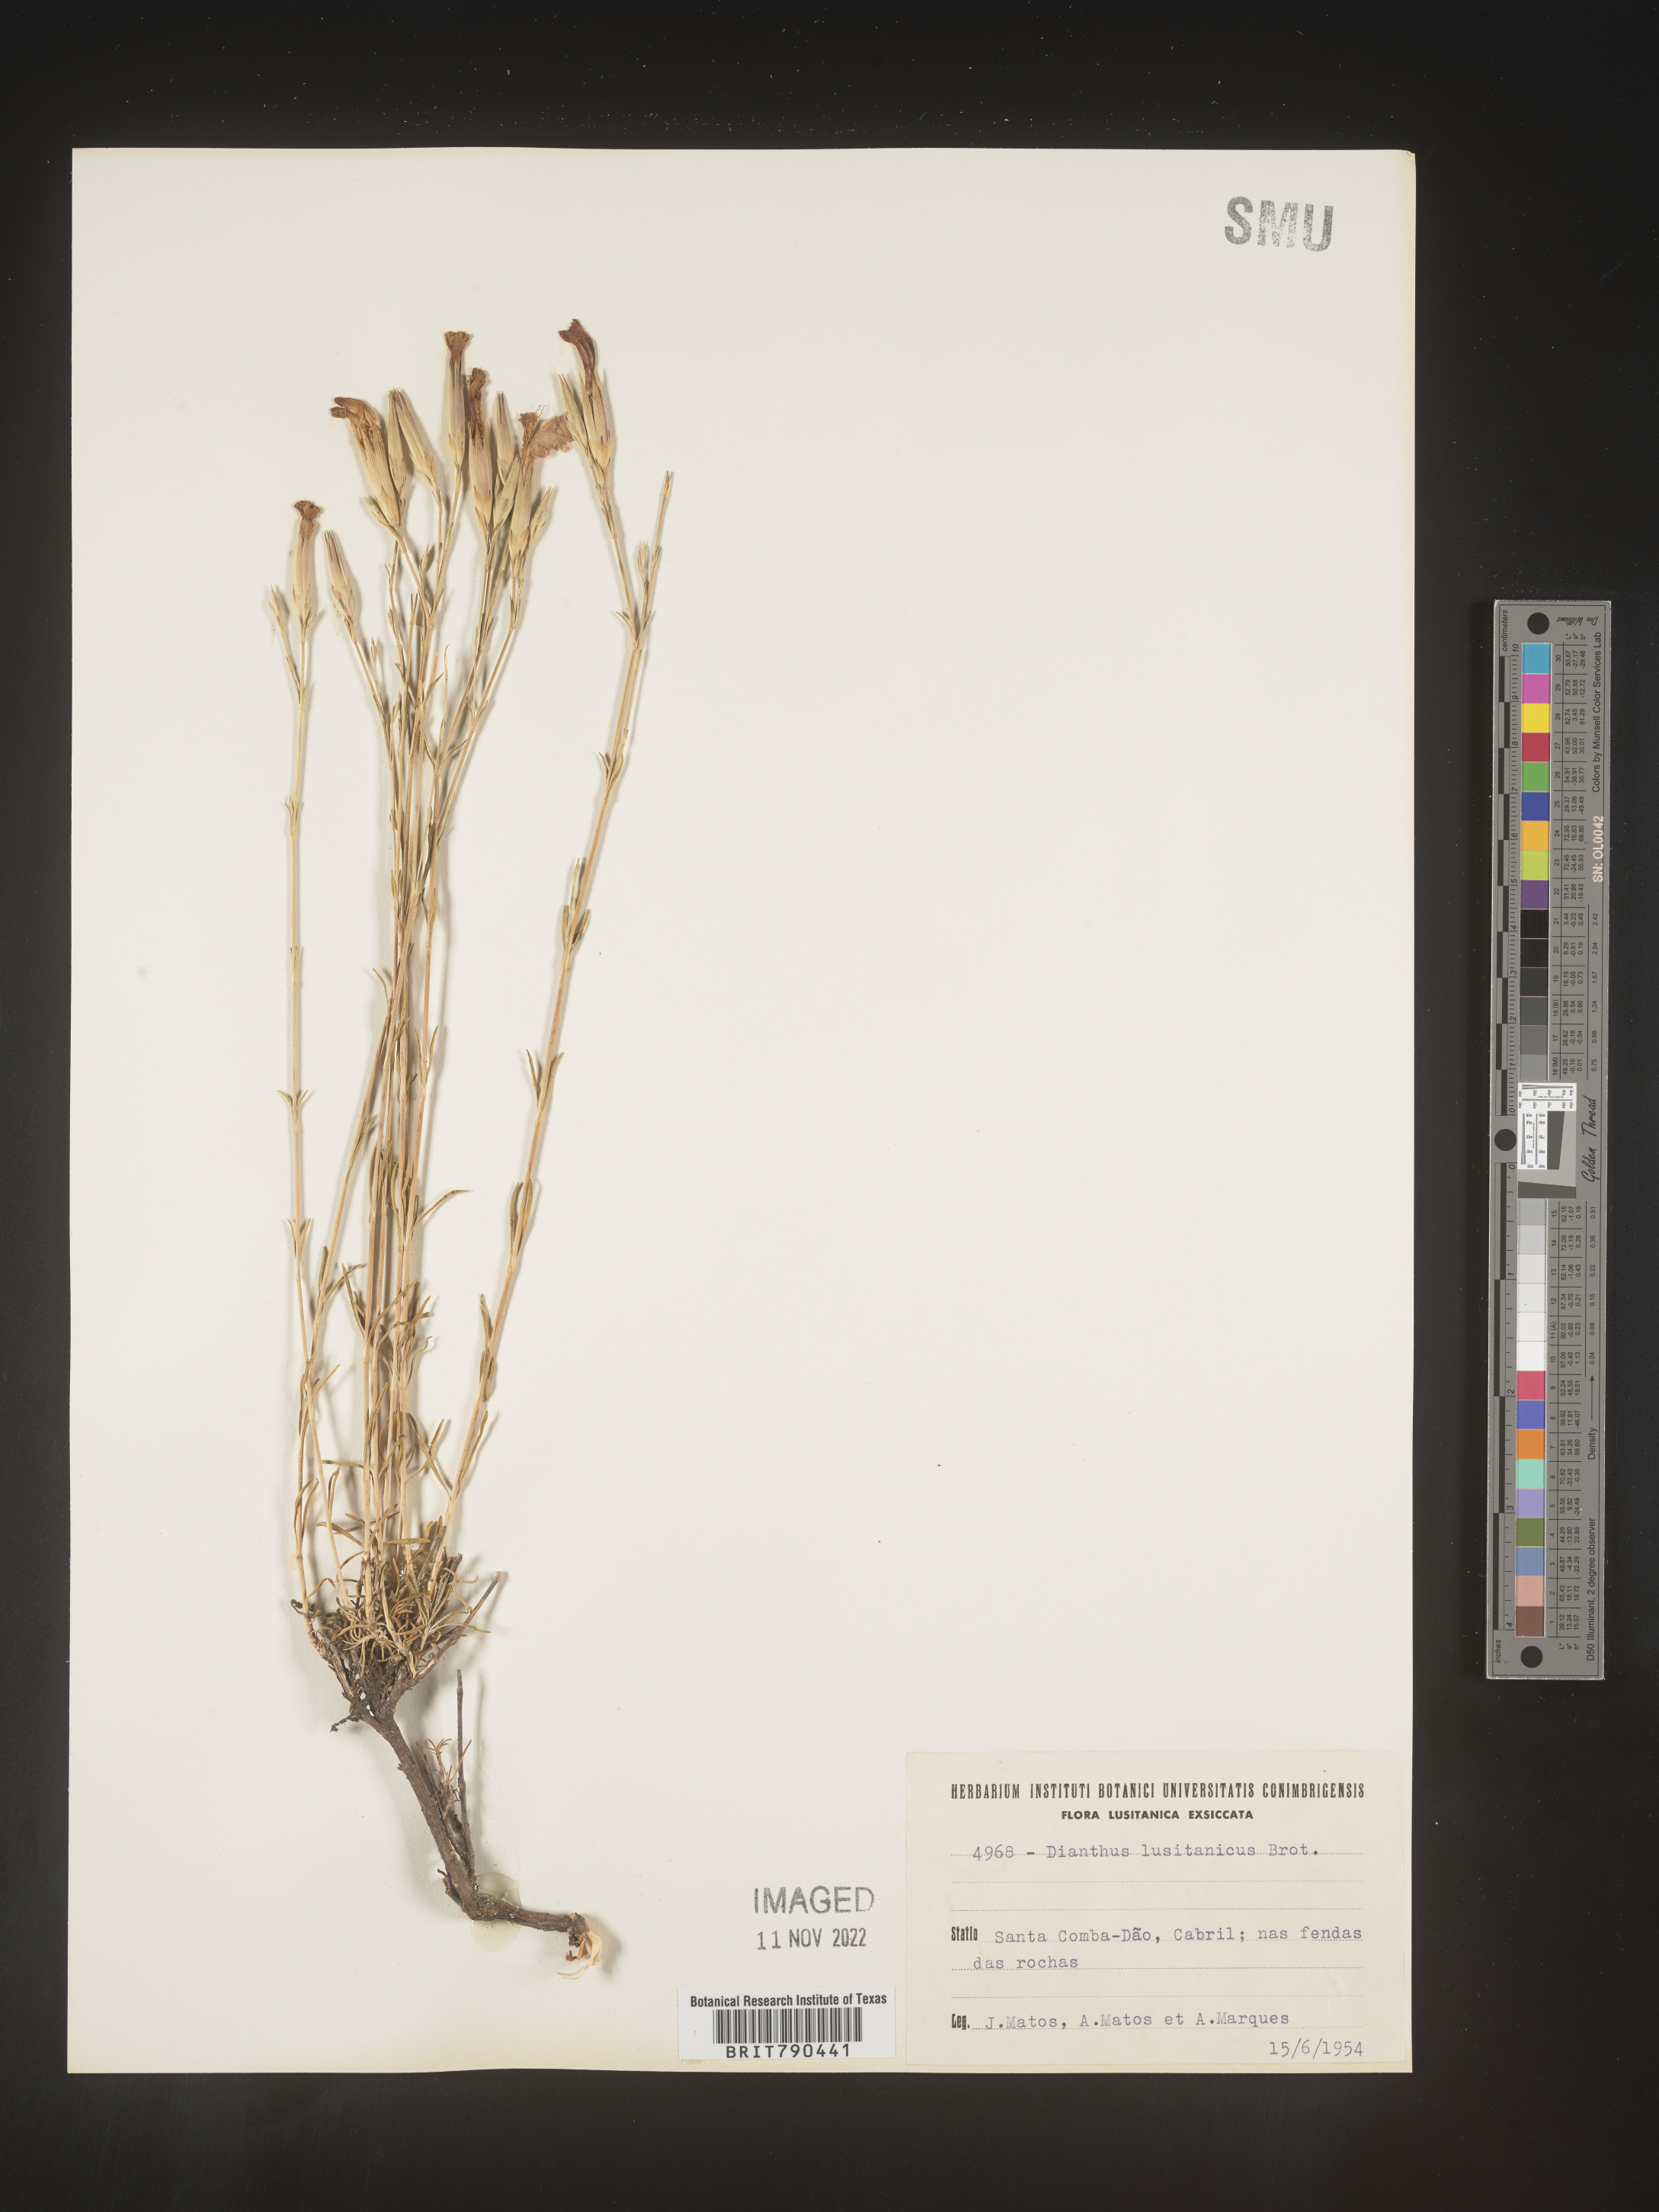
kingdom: Plantae
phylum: Tracheophyta
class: Magnoliopsida
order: Caryophyllales
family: Caryophyllaceae
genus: Dianthus
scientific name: Dianthus
